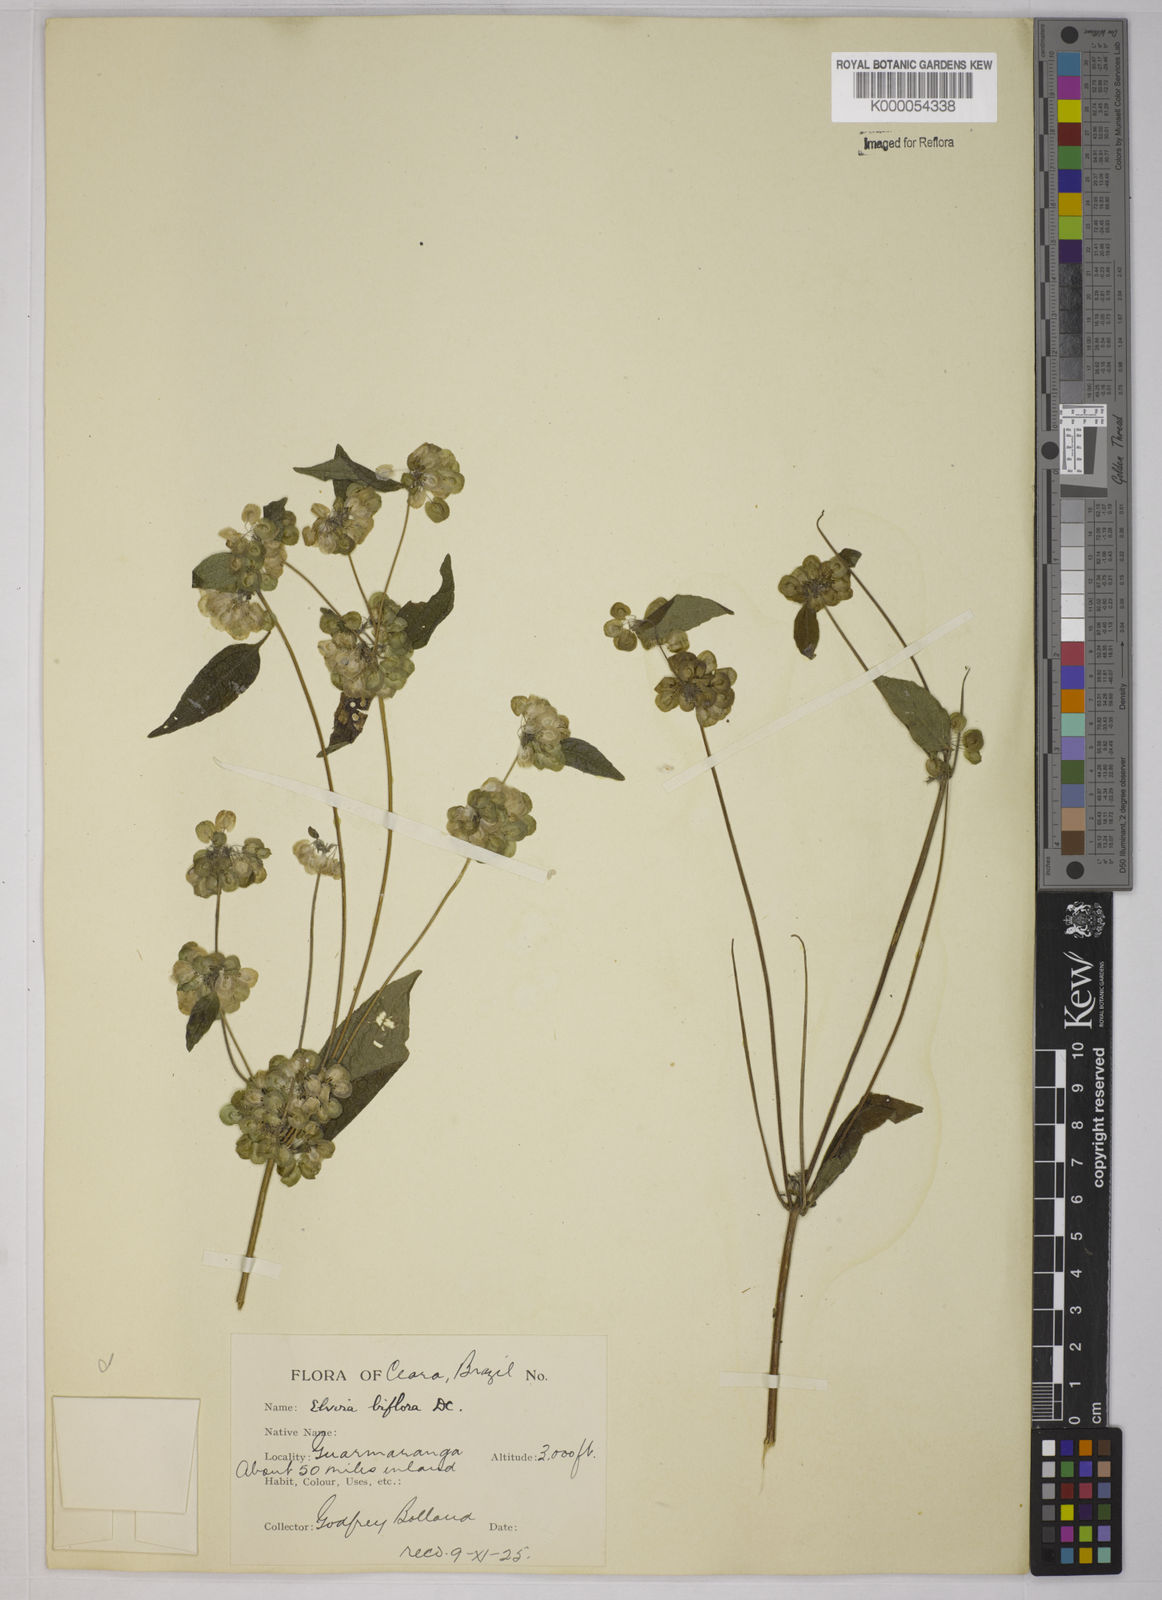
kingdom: Plantae
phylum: Tracheophyta
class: Magnoliopsida
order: Asterales
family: Asteraceae
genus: Delilia
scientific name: Delilia biflora
